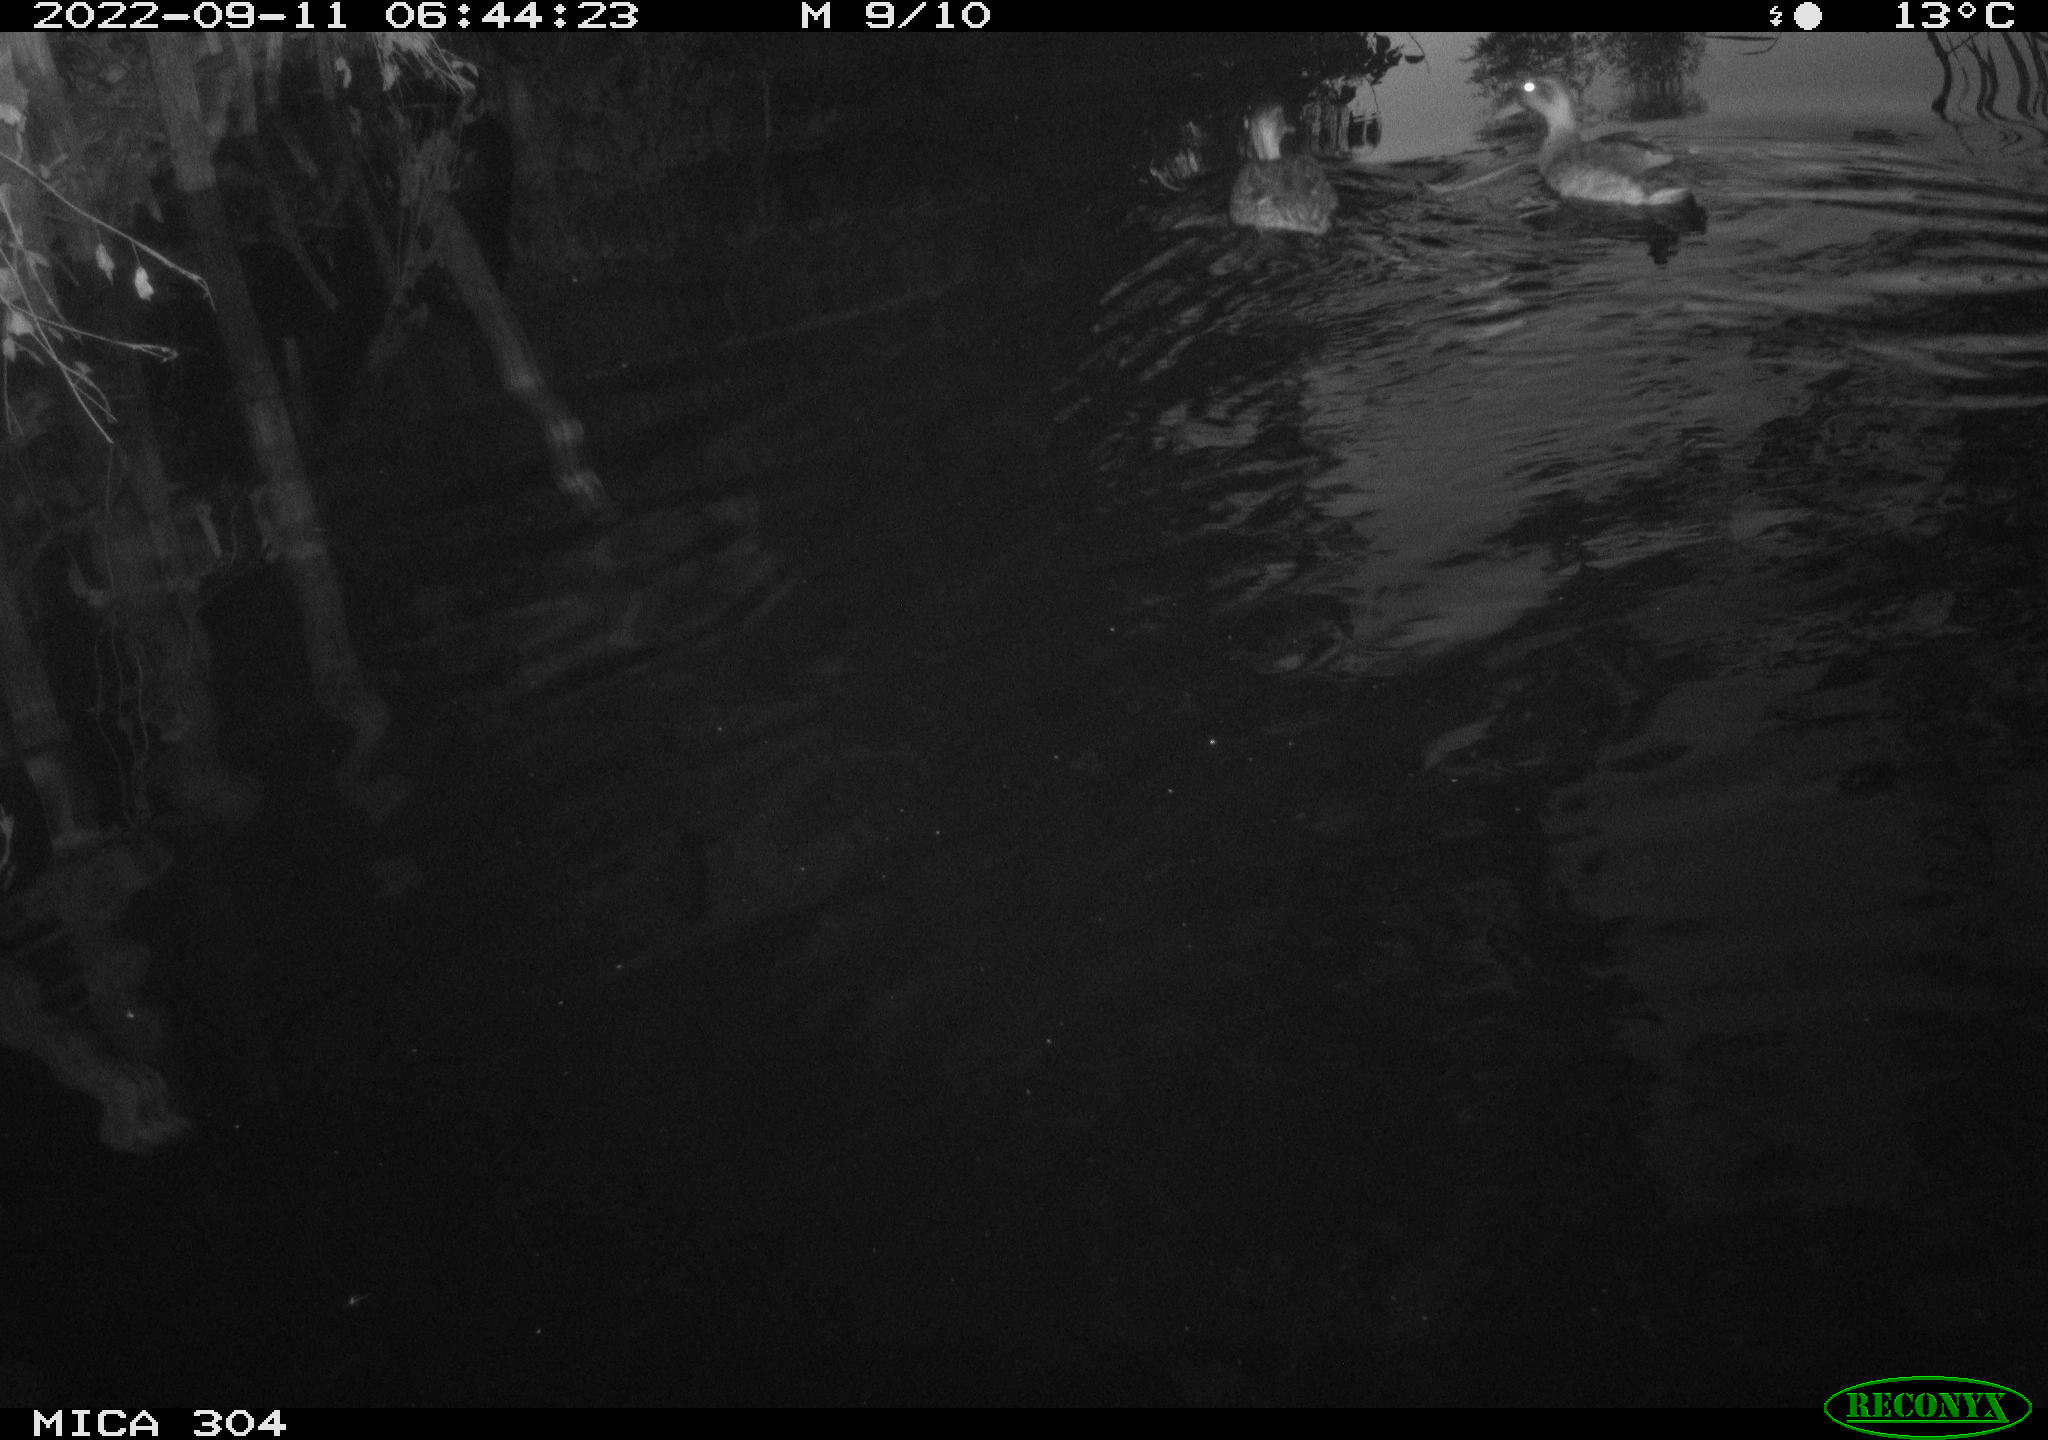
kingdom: Animalia
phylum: Chordata
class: Aves
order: Anseriformes
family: Anatidae
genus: Anas
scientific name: Anas
